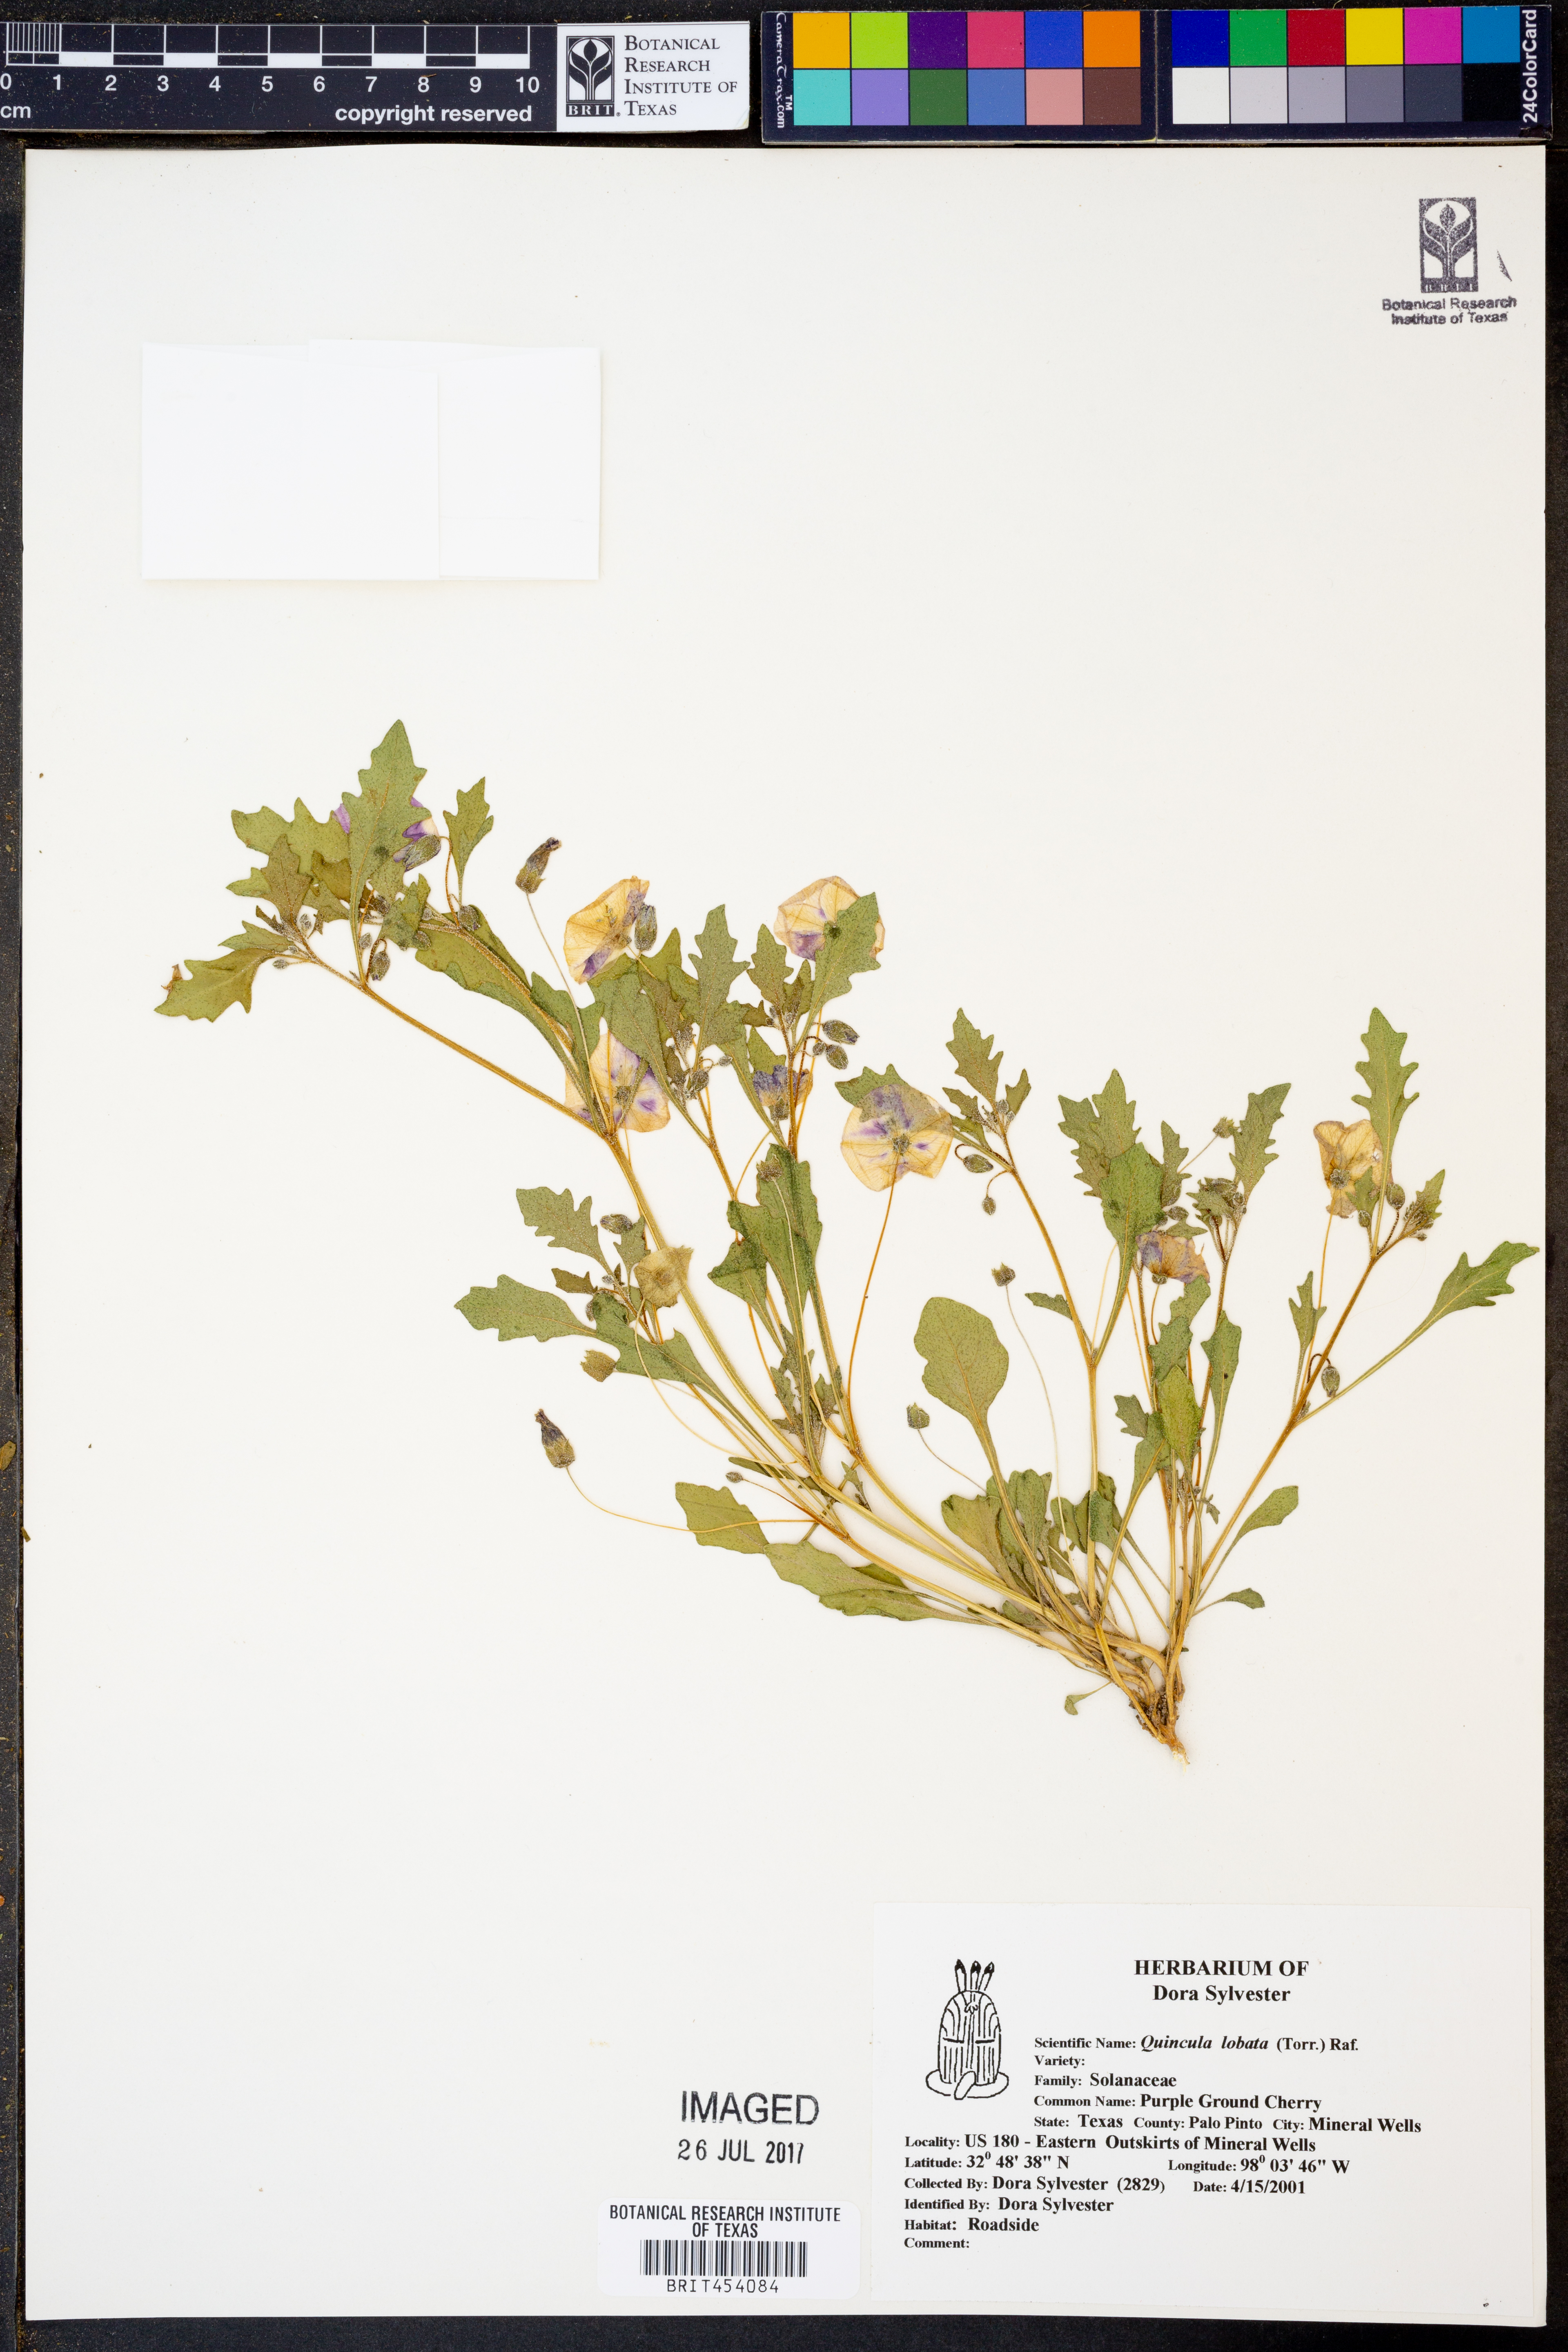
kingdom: Plantae
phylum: Tracheophyta
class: Magnoliopsida
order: Solanales
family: Solanaceae
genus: Quincula
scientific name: Quincula lobata
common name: Purple-ground-cherry
